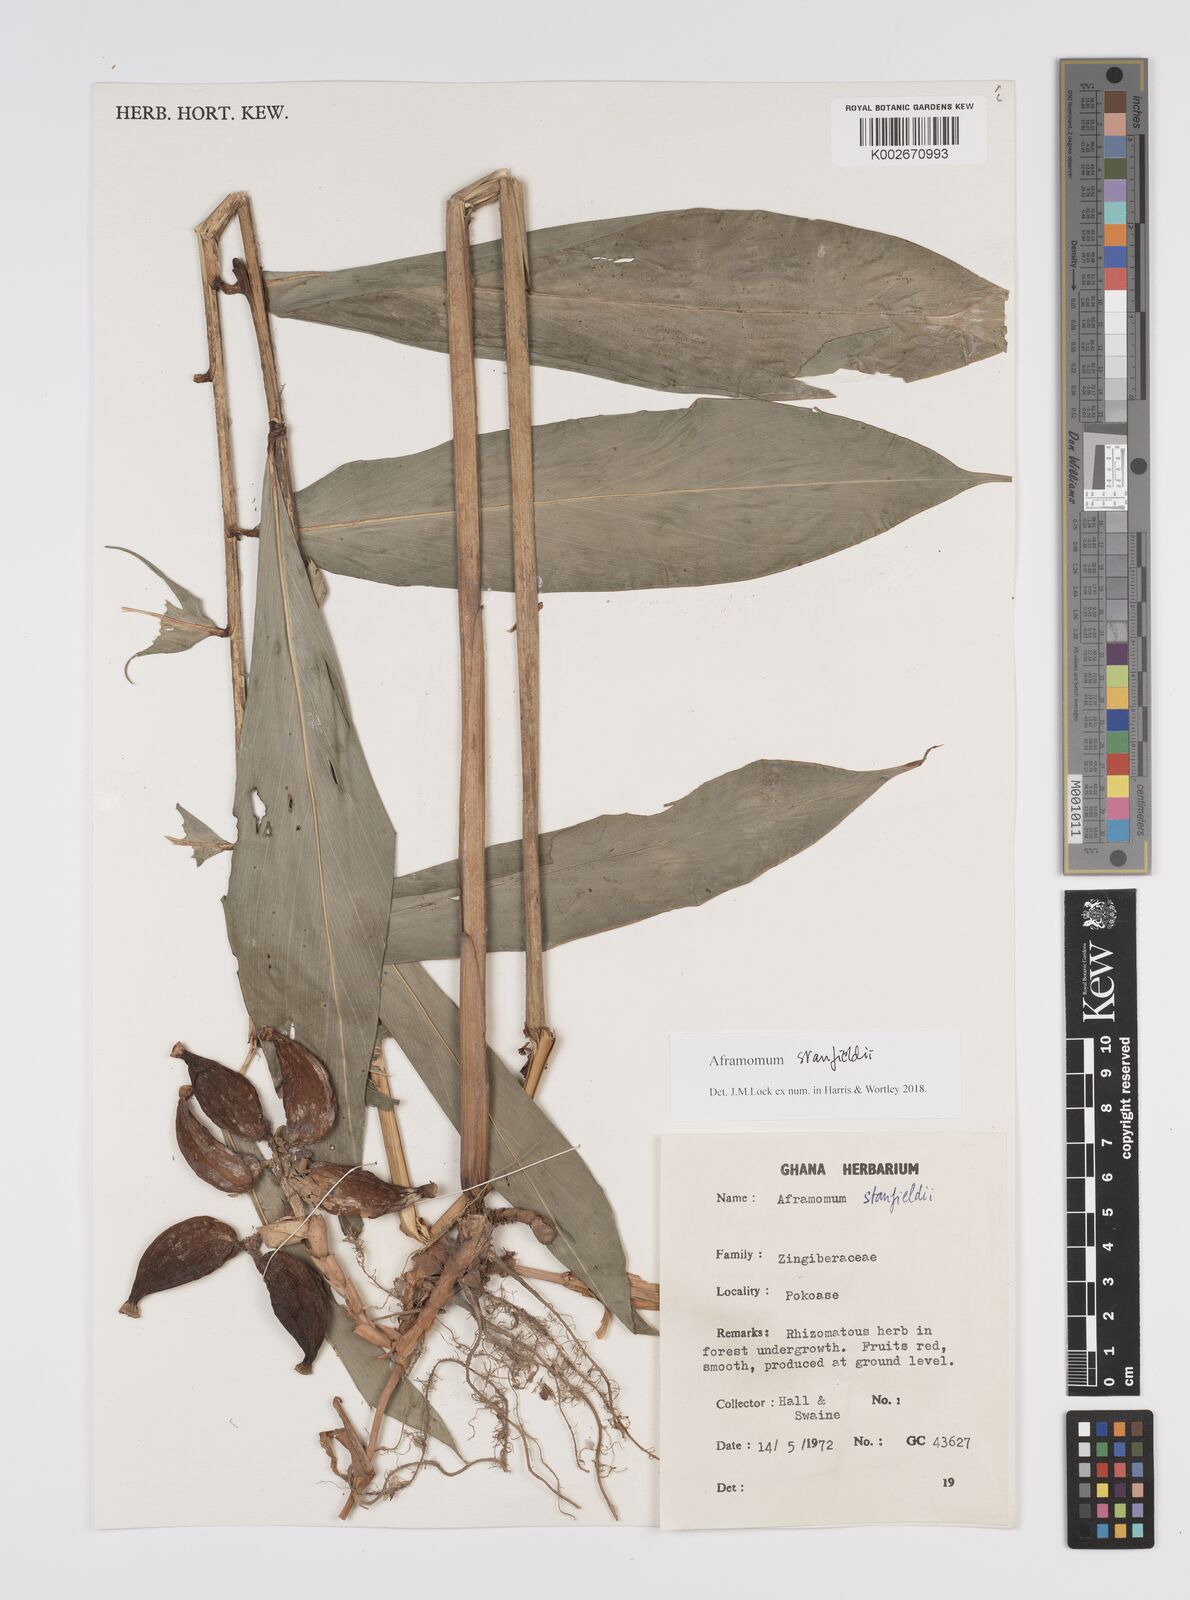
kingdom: Plantae
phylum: Tracheophyta
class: Liliopsida
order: Zingiberales
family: Zingiberaceae
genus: Aframomum
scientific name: Aframomum stanfieldii
